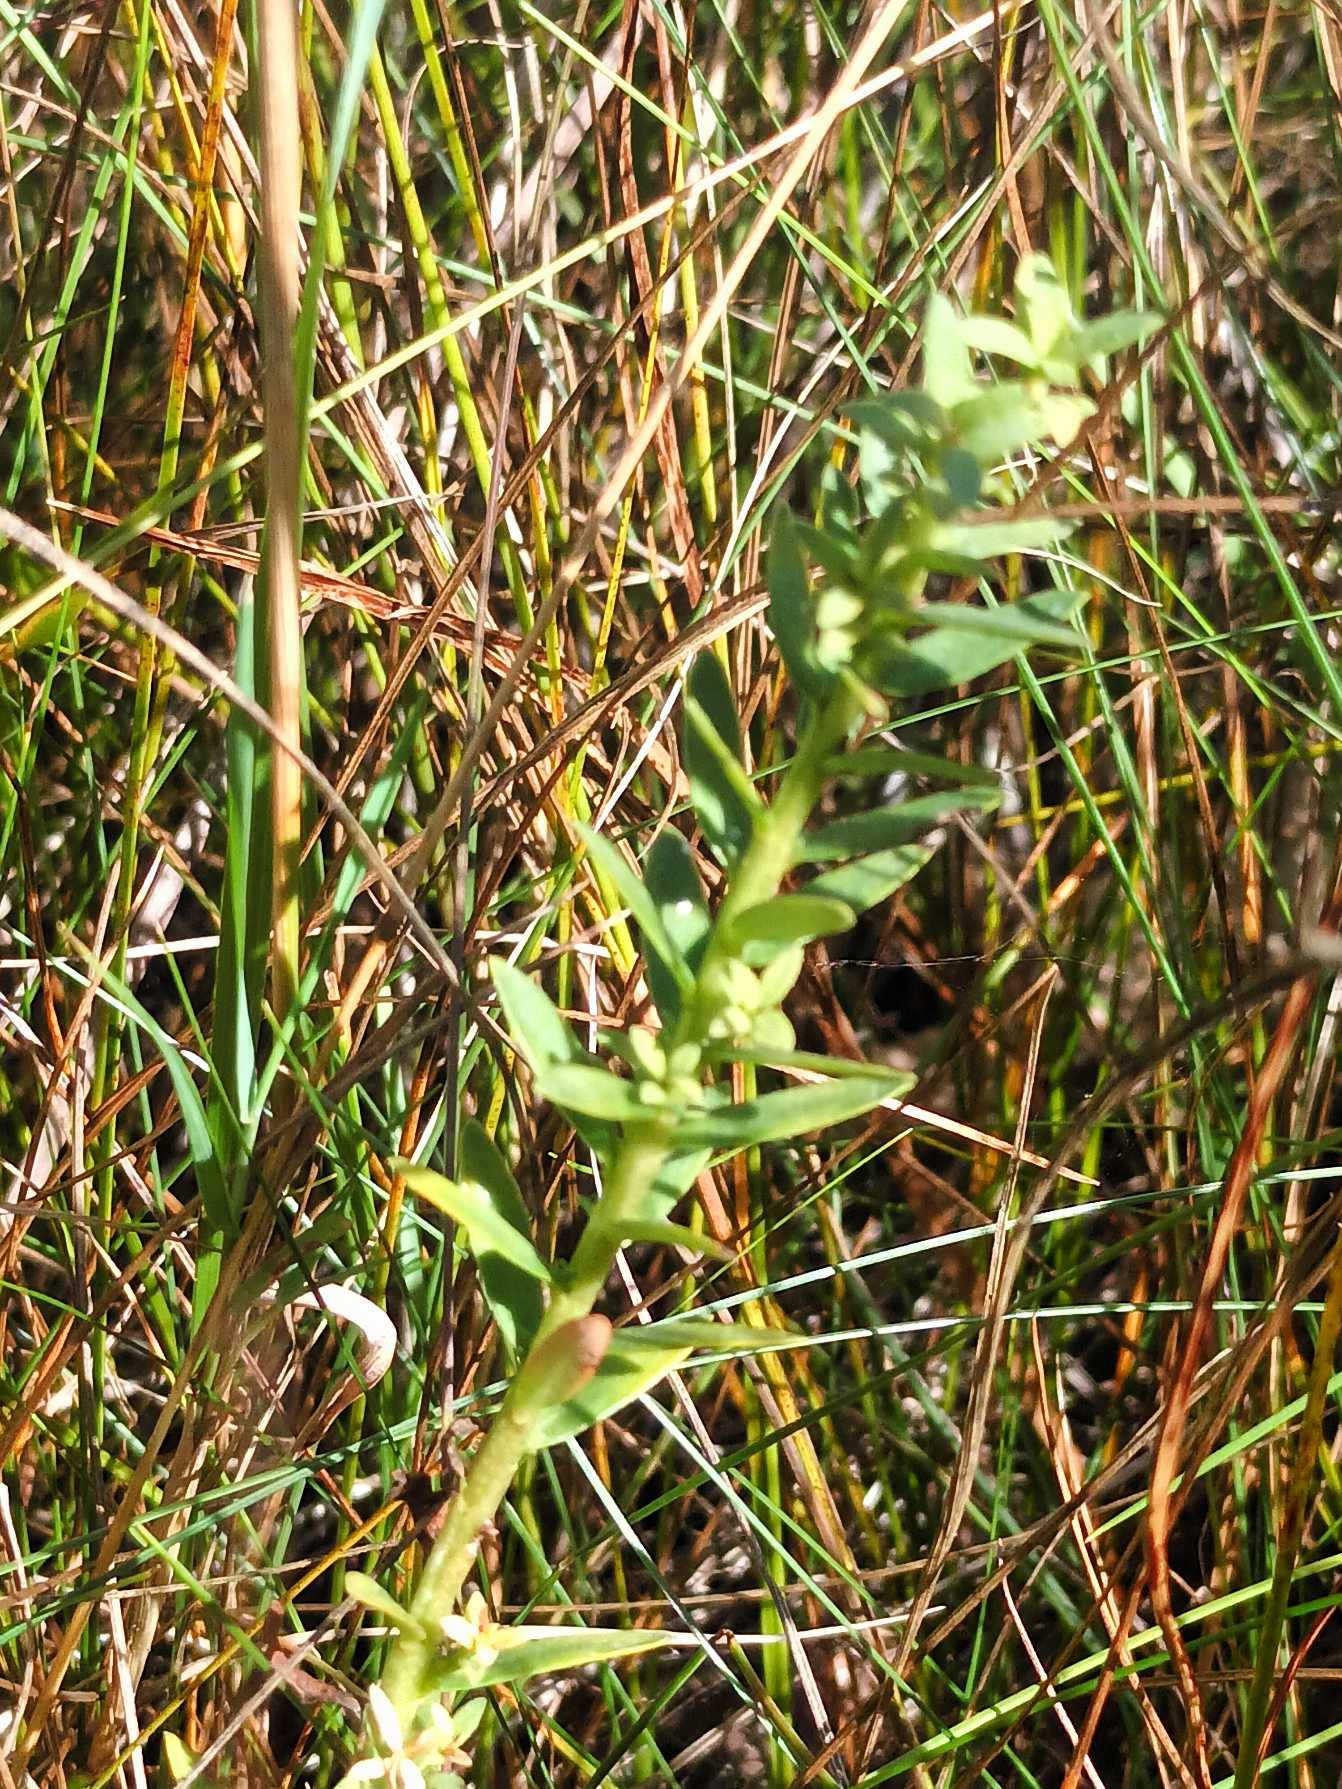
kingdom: Plantae
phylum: Tracheophyta
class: Magnoliopsida
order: Ericales
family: Primulaceae
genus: Lysimachia
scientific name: Lysimachia maritima
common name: Sandkryb
